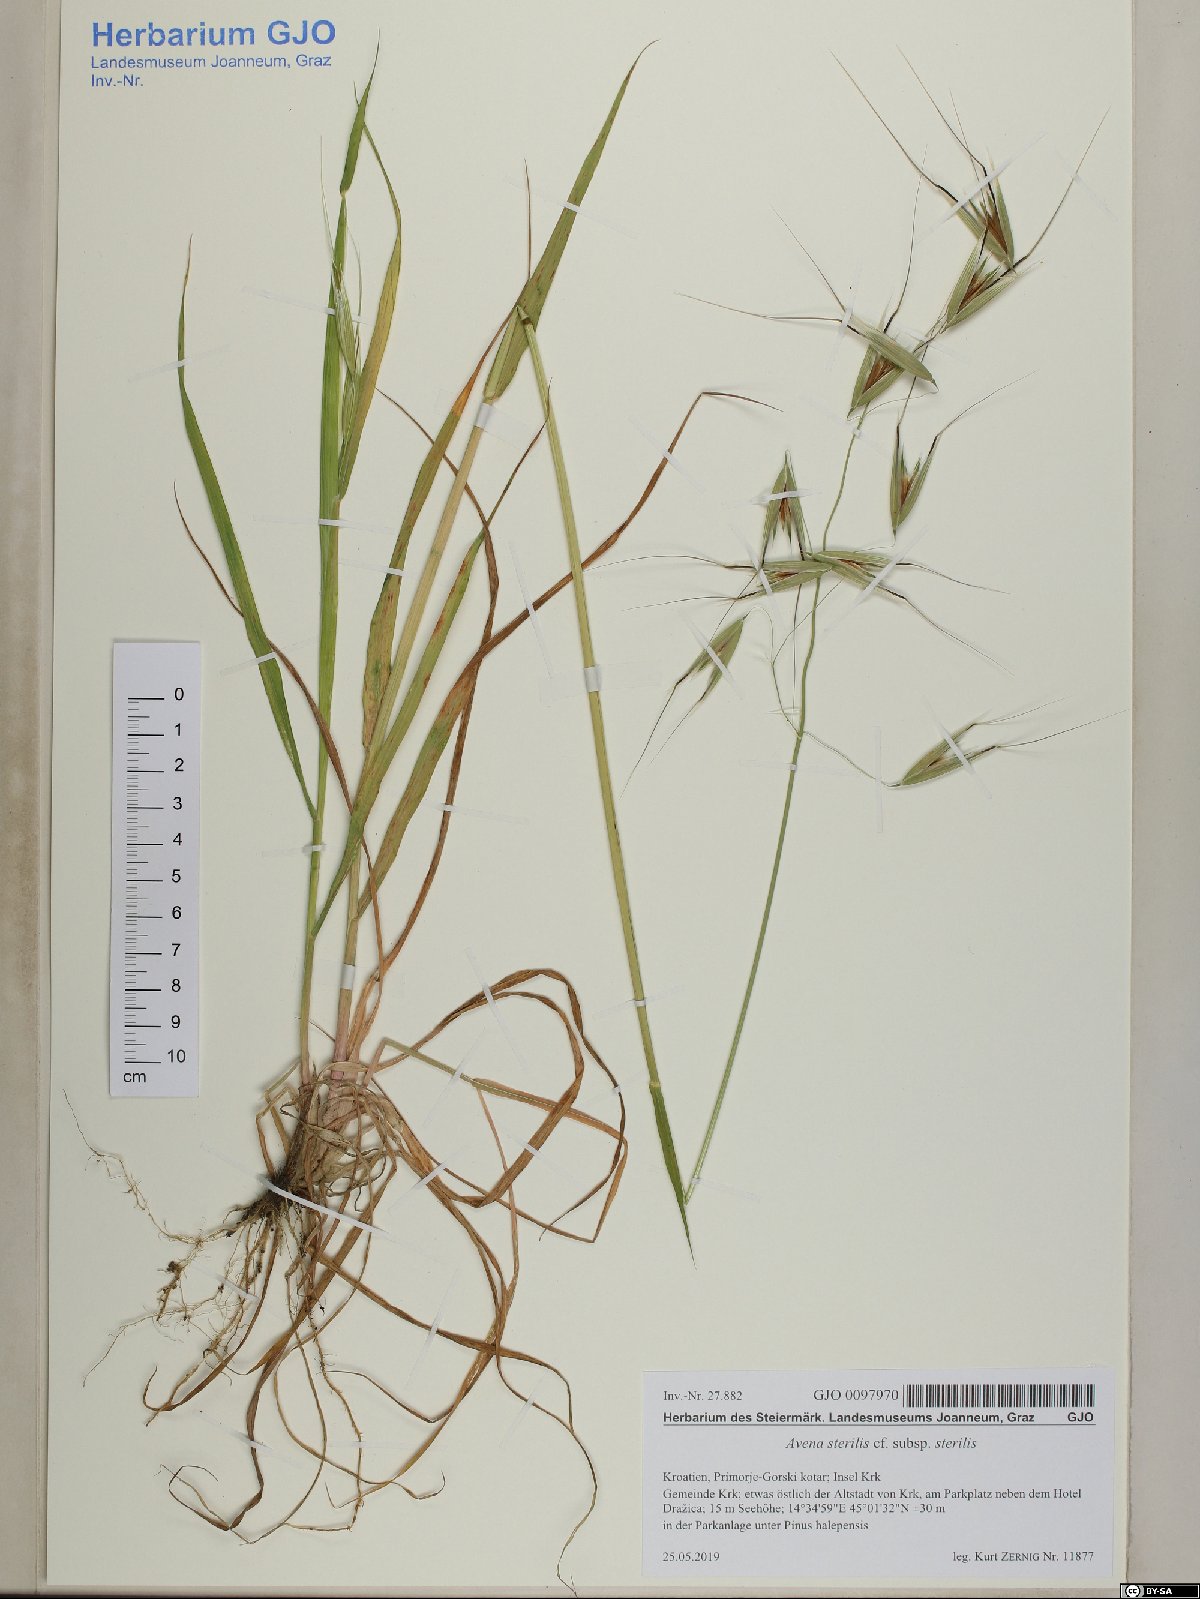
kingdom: Plantae
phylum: Tracheophyta
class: Liliopsida
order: Poales
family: Poaceae
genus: Avena
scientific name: Avena sterilis
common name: Animated oat
